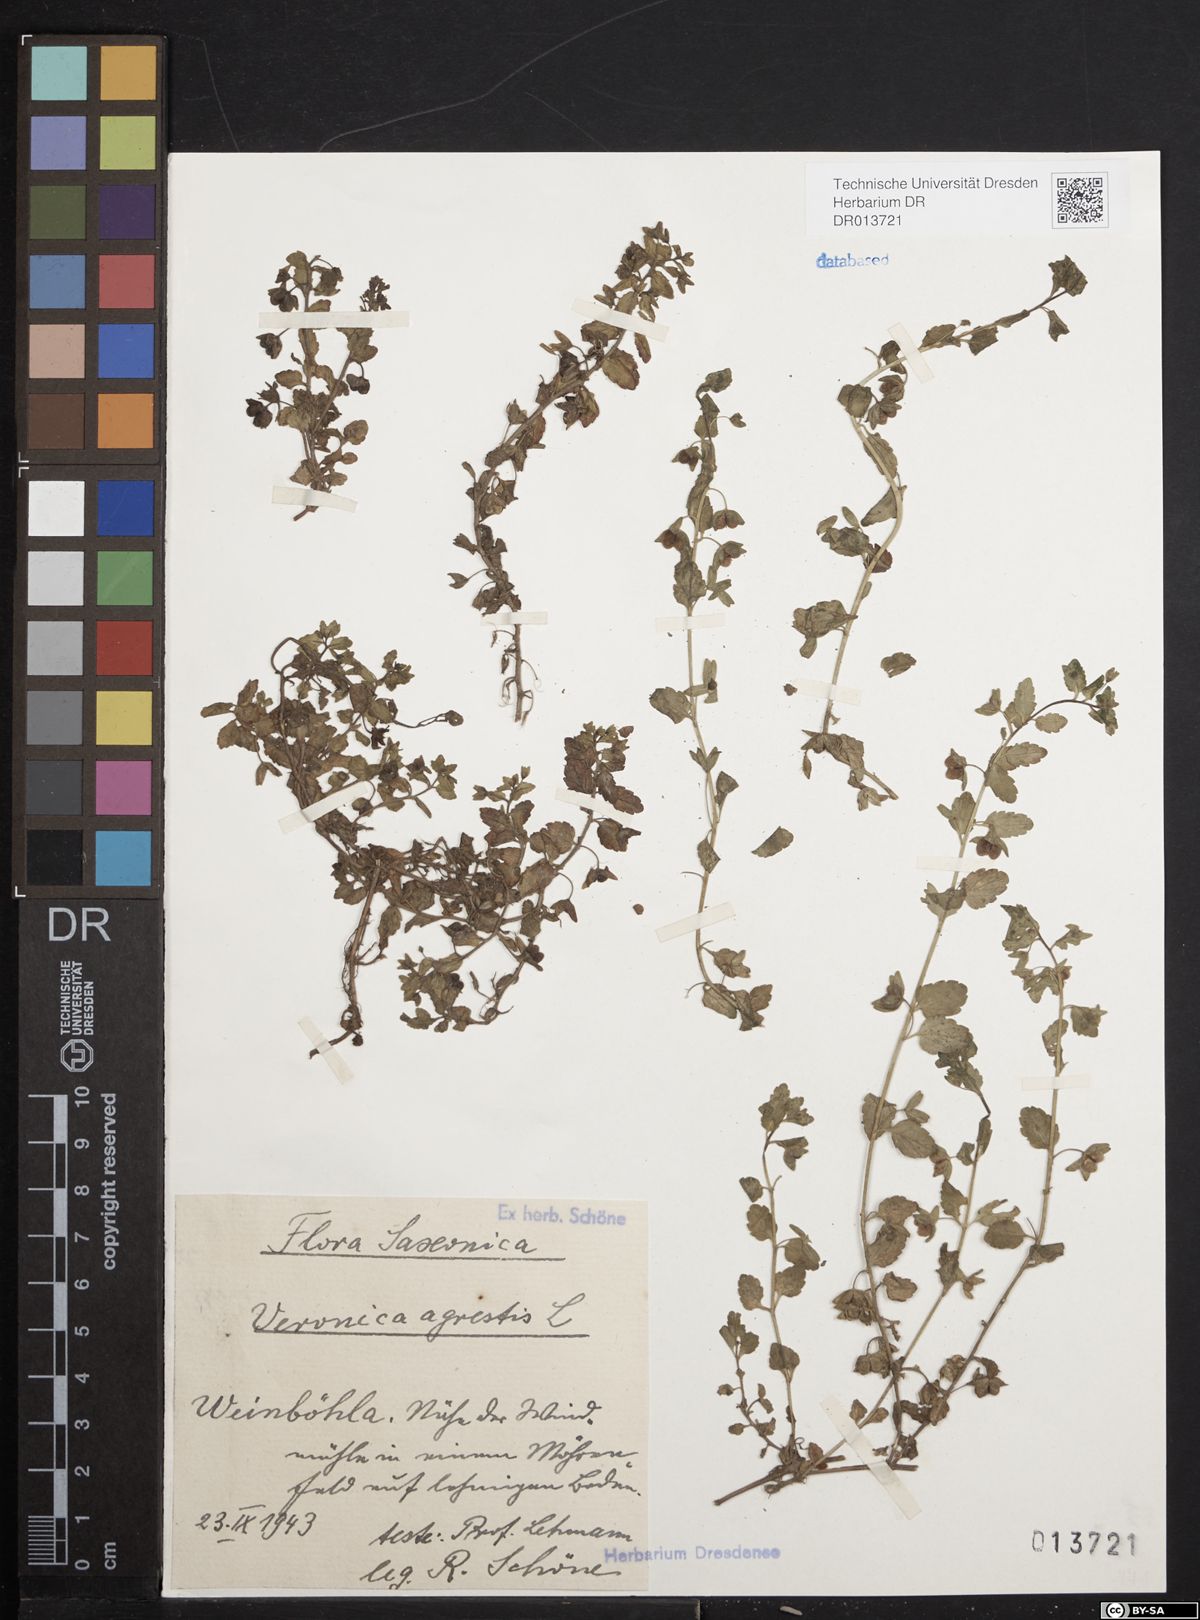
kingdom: Plantae
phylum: Tracheophyta
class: Magnoliopsida
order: Lamiales
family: Plantaginaceae
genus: Veronica
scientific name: Veronica agrestis
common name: Green field-speedwell
